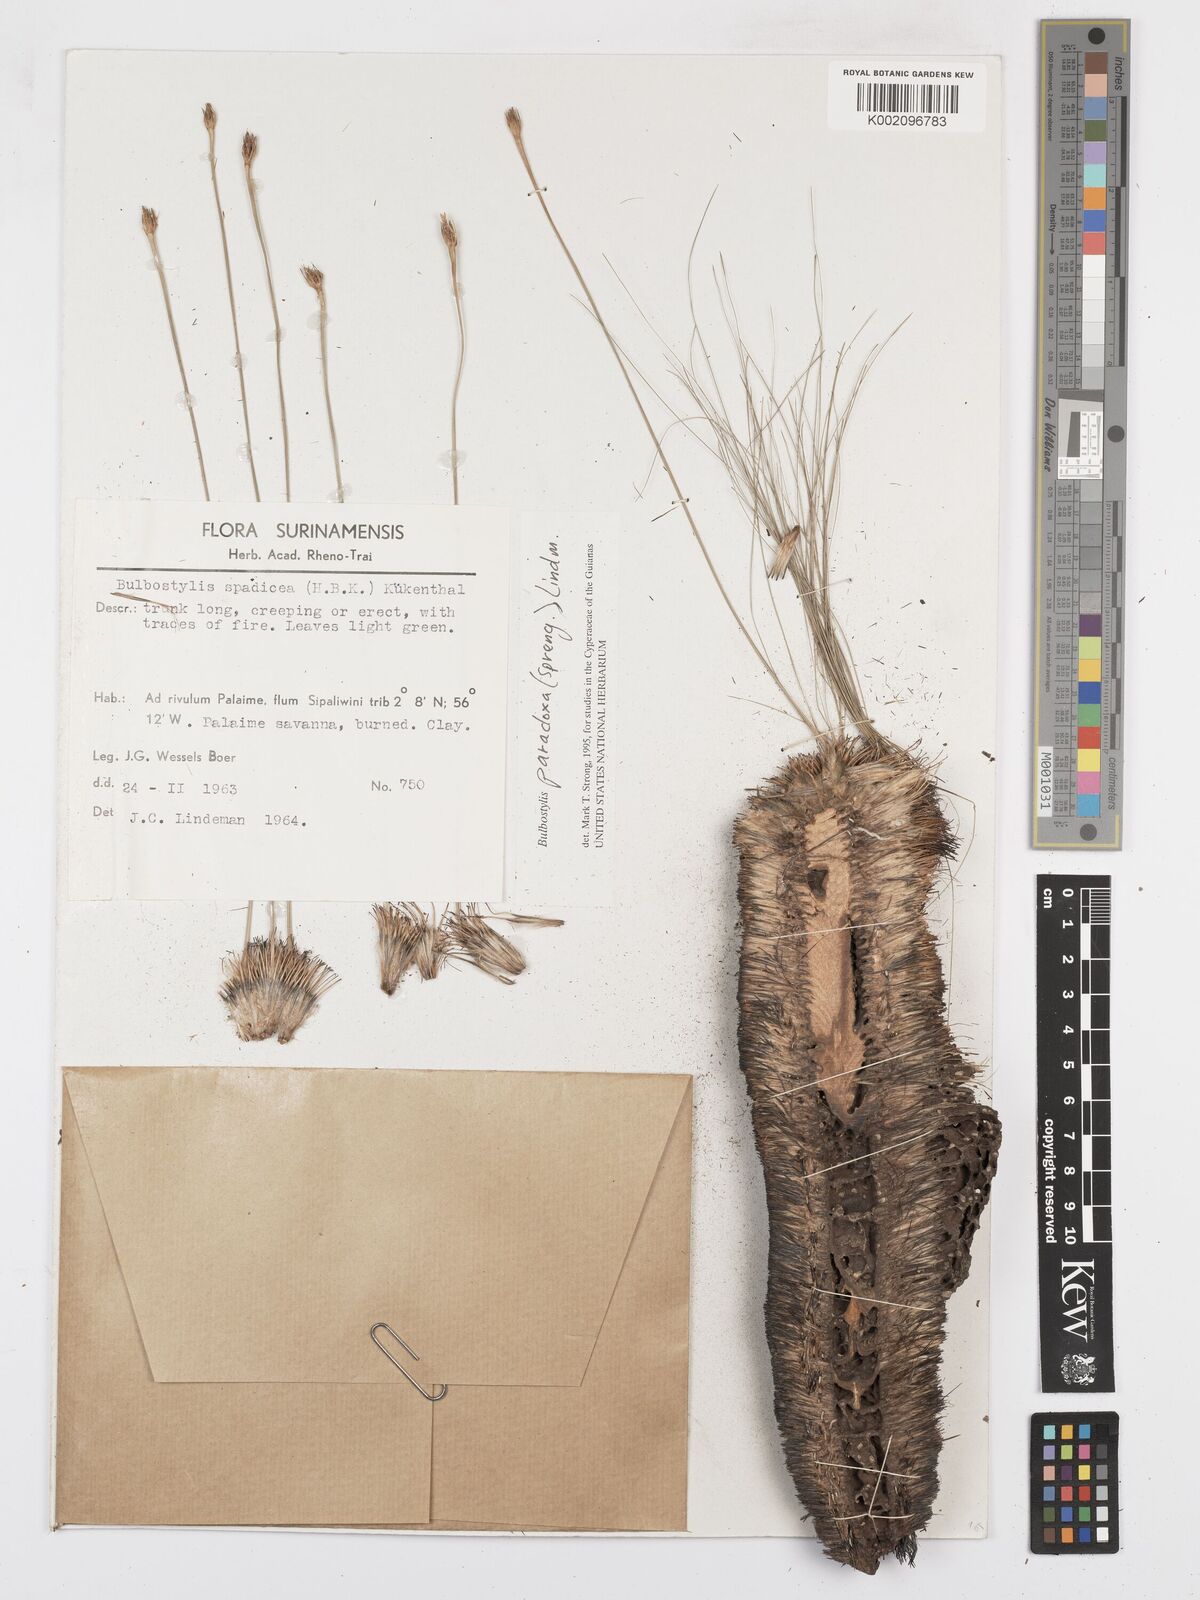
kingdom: Plantae
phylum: Tracheophyta
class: Liliopsida
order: Poales
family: Cyperaceae
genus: Bulbostylis
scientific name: Bulbostylis paradoxa
